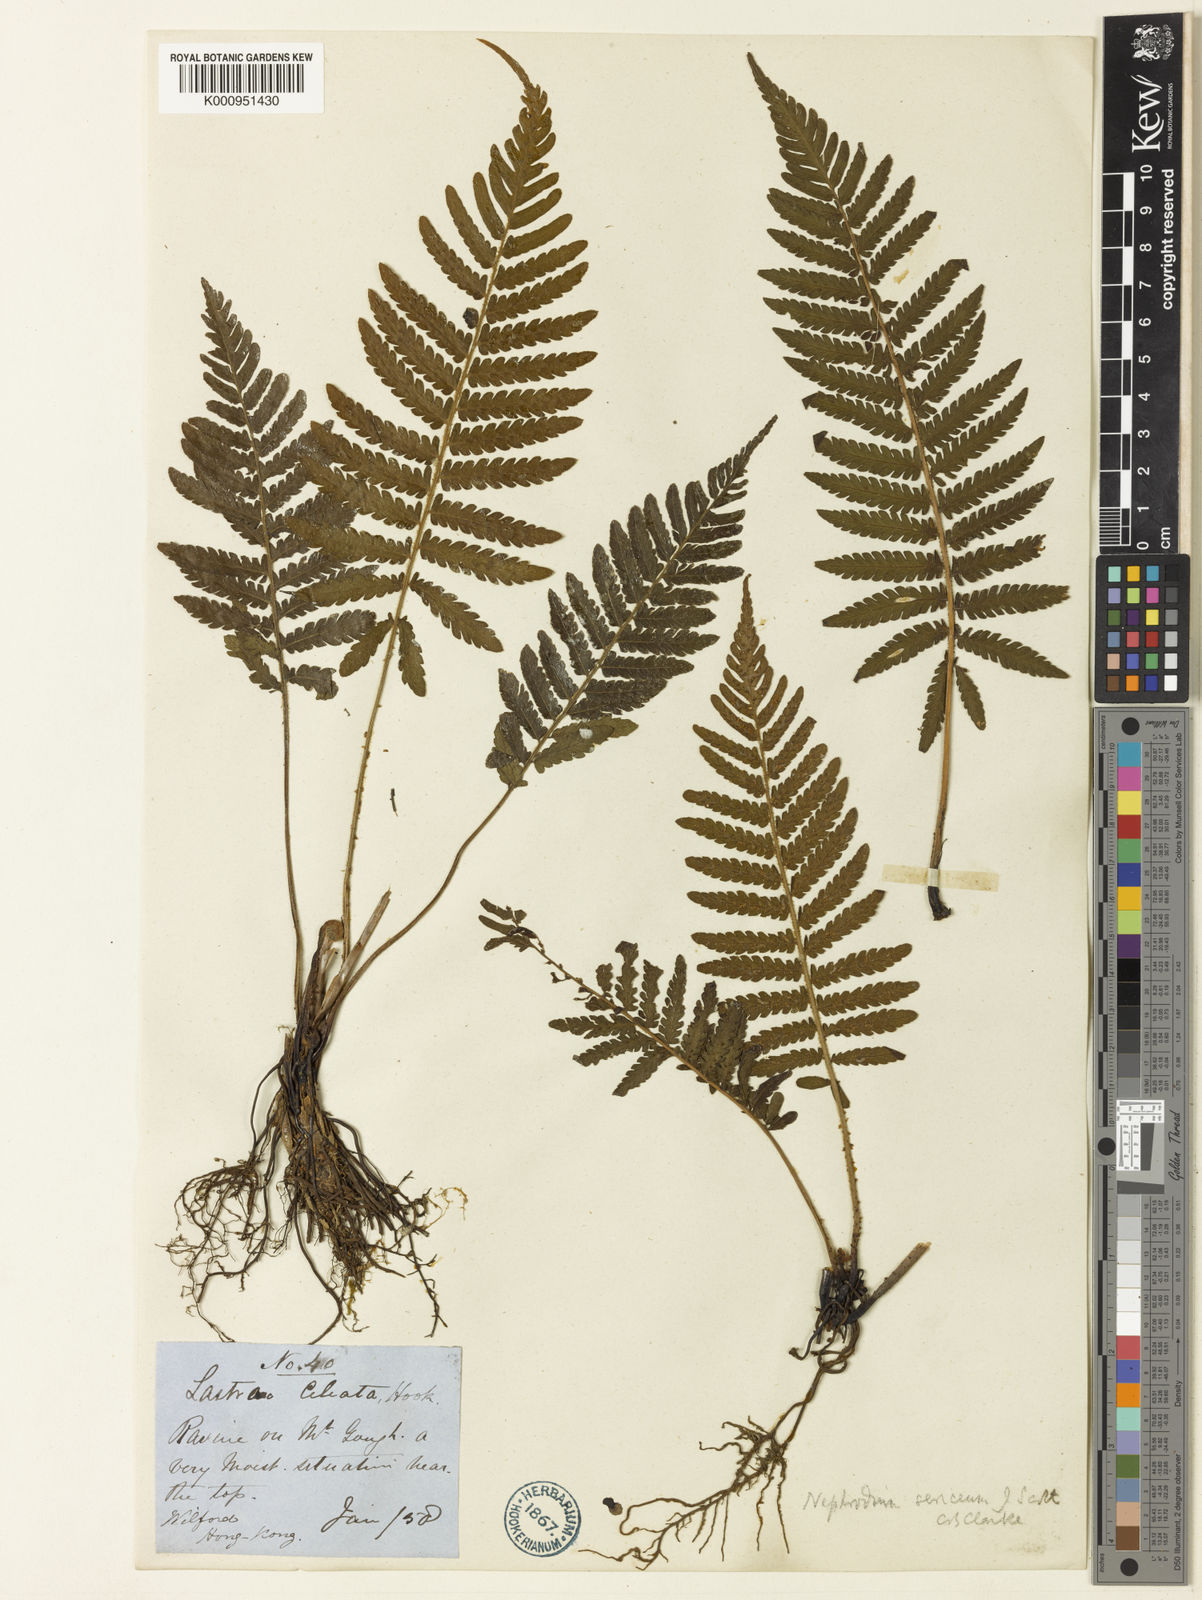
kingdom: Plantae
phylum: Tracheophyta
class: Polypodiopsida
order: Polypodiales
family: Thelypteridaceae
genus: Trigonospora
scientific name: Trigonospora tenera
